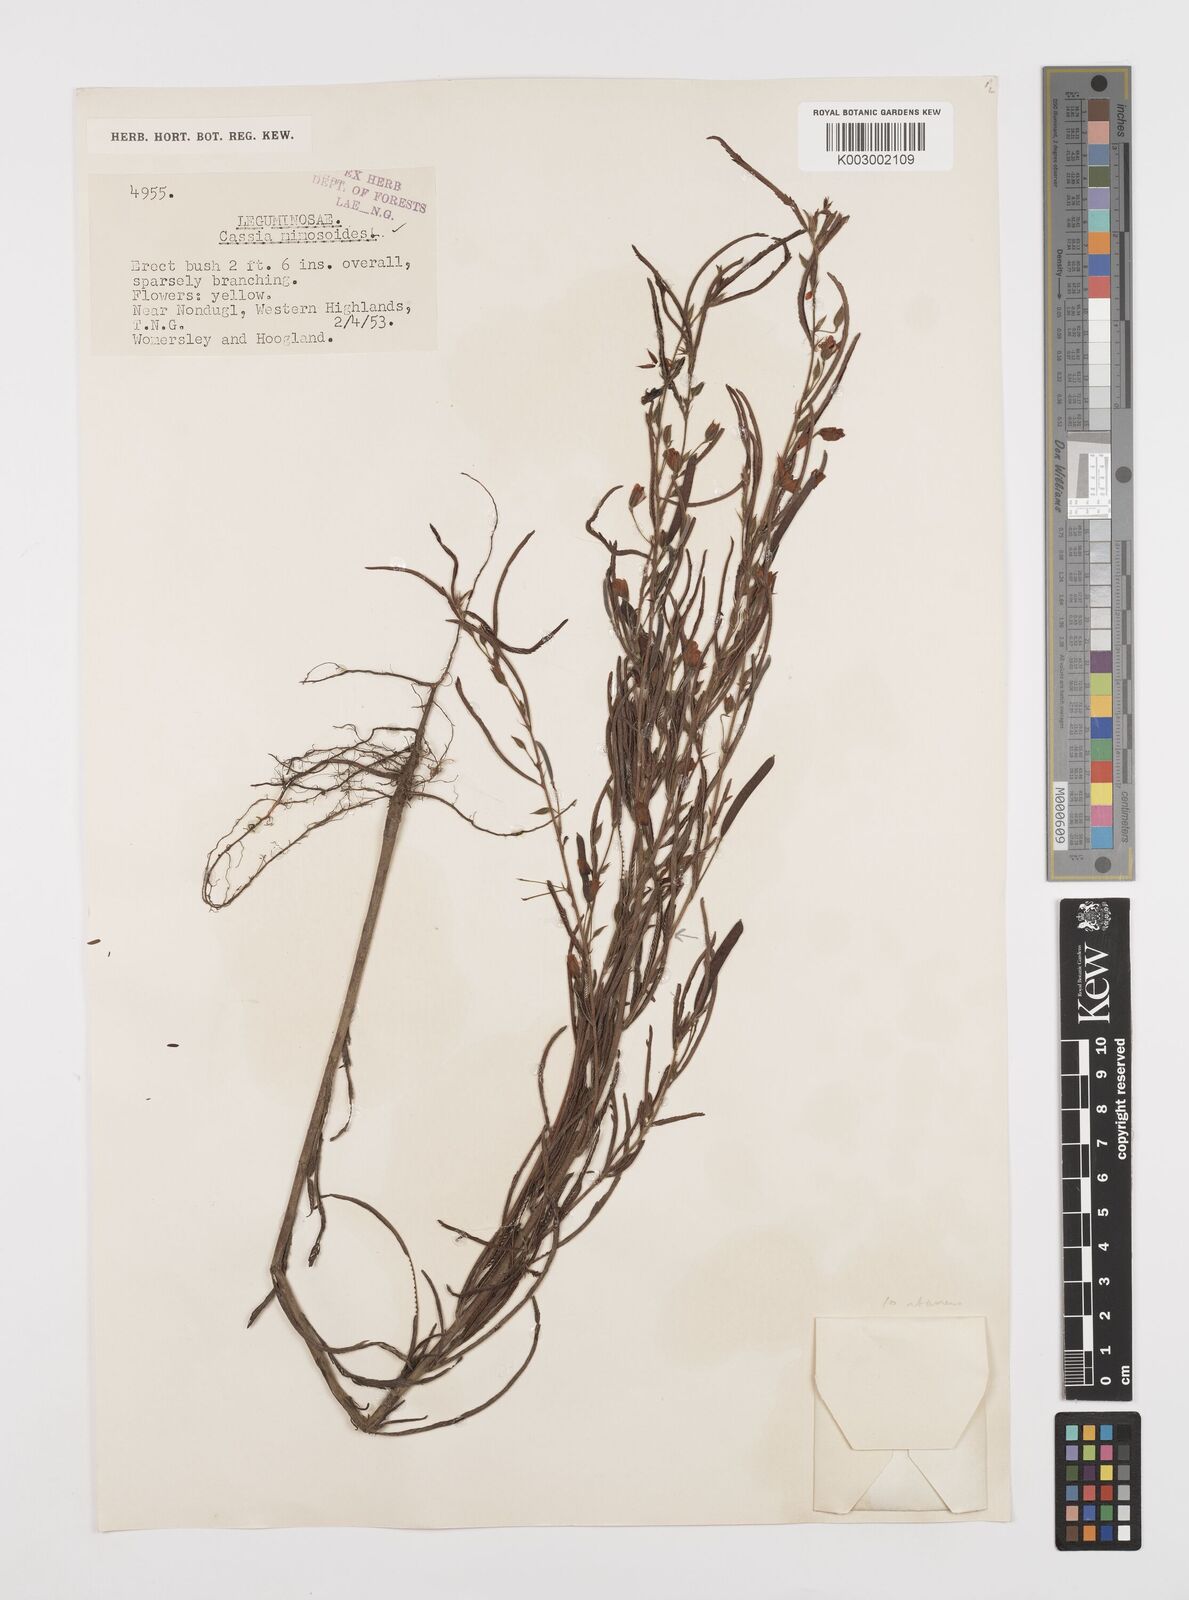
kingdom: Plantae
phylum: Tracheophyta
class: Magnoliopsida
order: Fabales
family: Fabaceae
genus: Chamaecrista
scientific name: Chamaecrista mimosoides
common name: Fish-bone cassia
